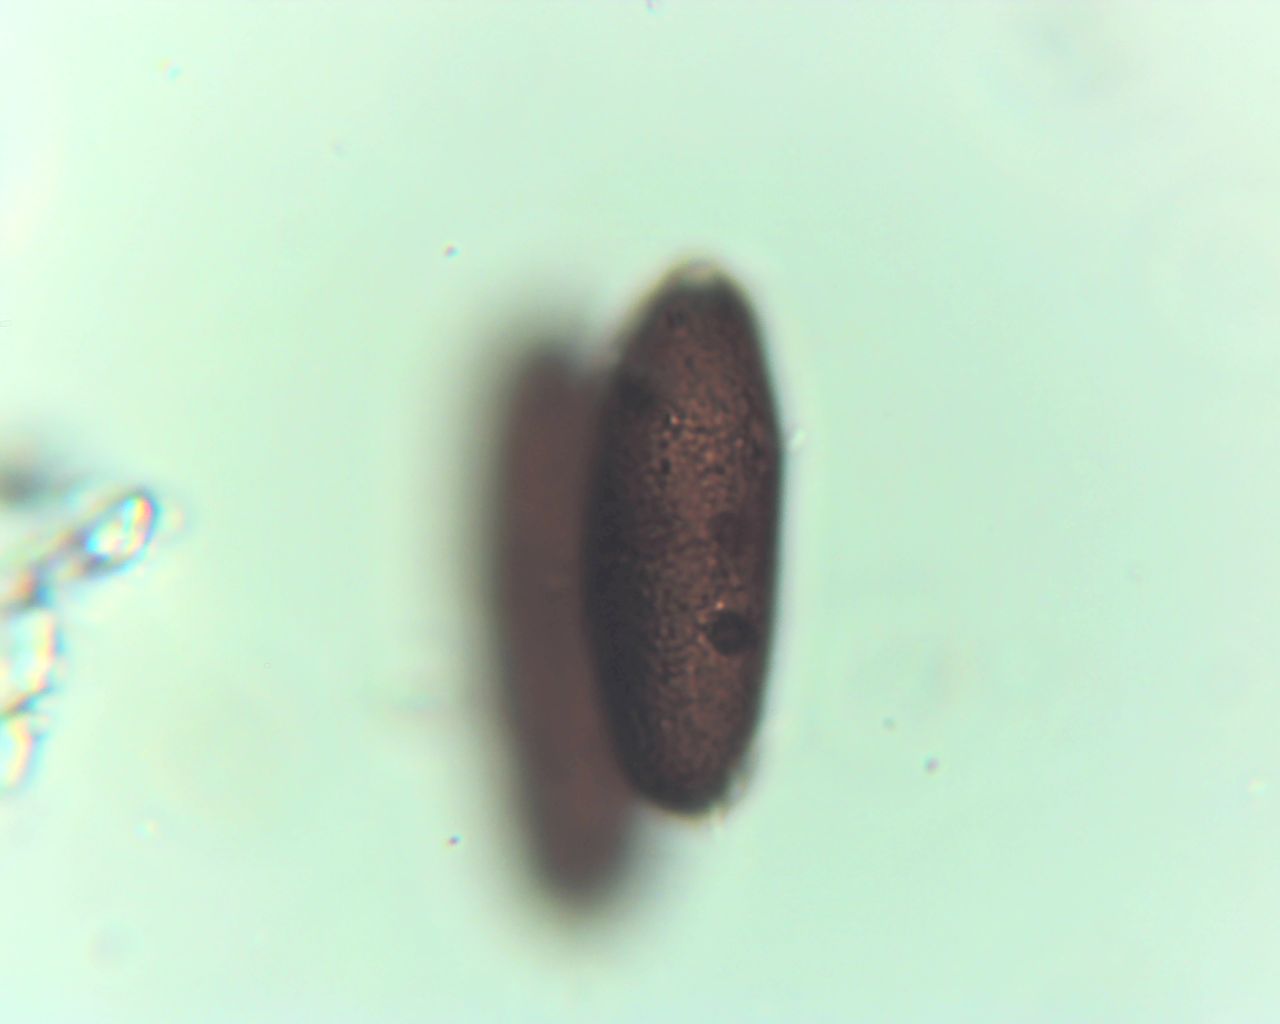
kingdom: Fungi
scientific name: Fungi
